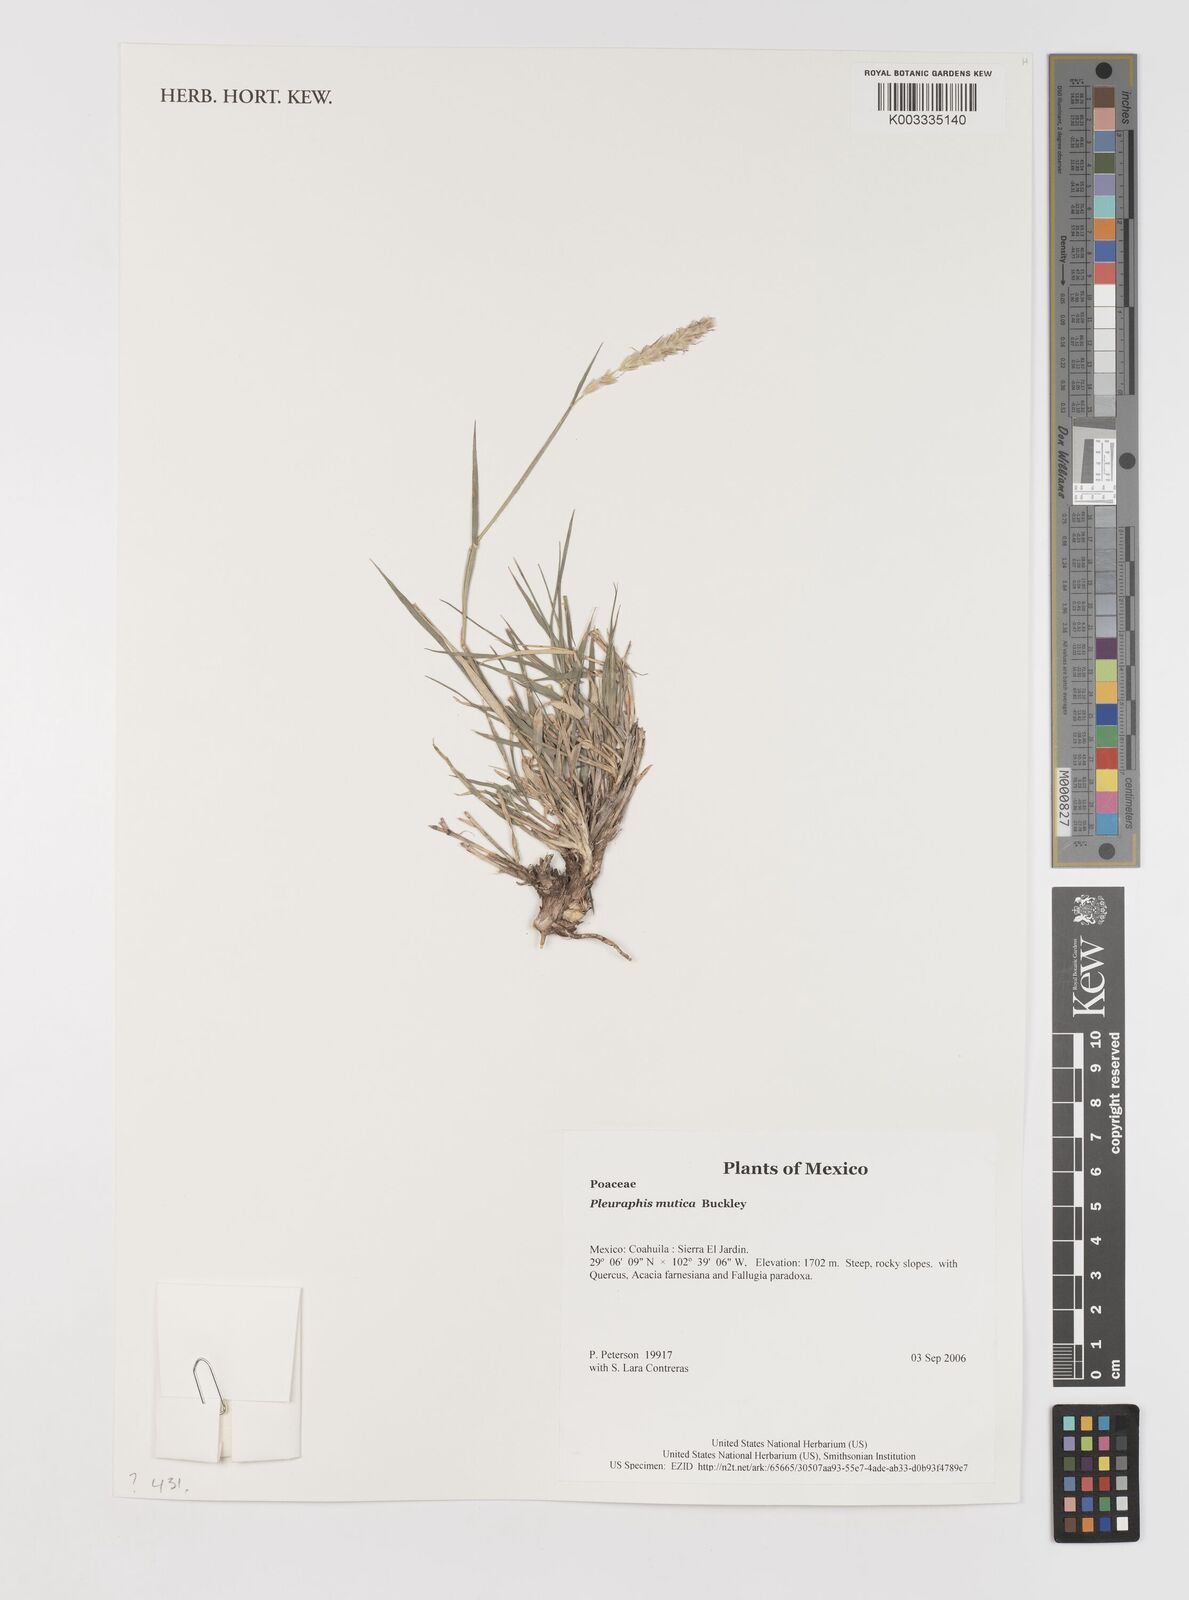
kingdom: Plantae
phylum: Tracheophyta
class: Liliopsida
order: Poales
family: Poaceae
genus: Hilaria
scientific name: Hilaria mutica
